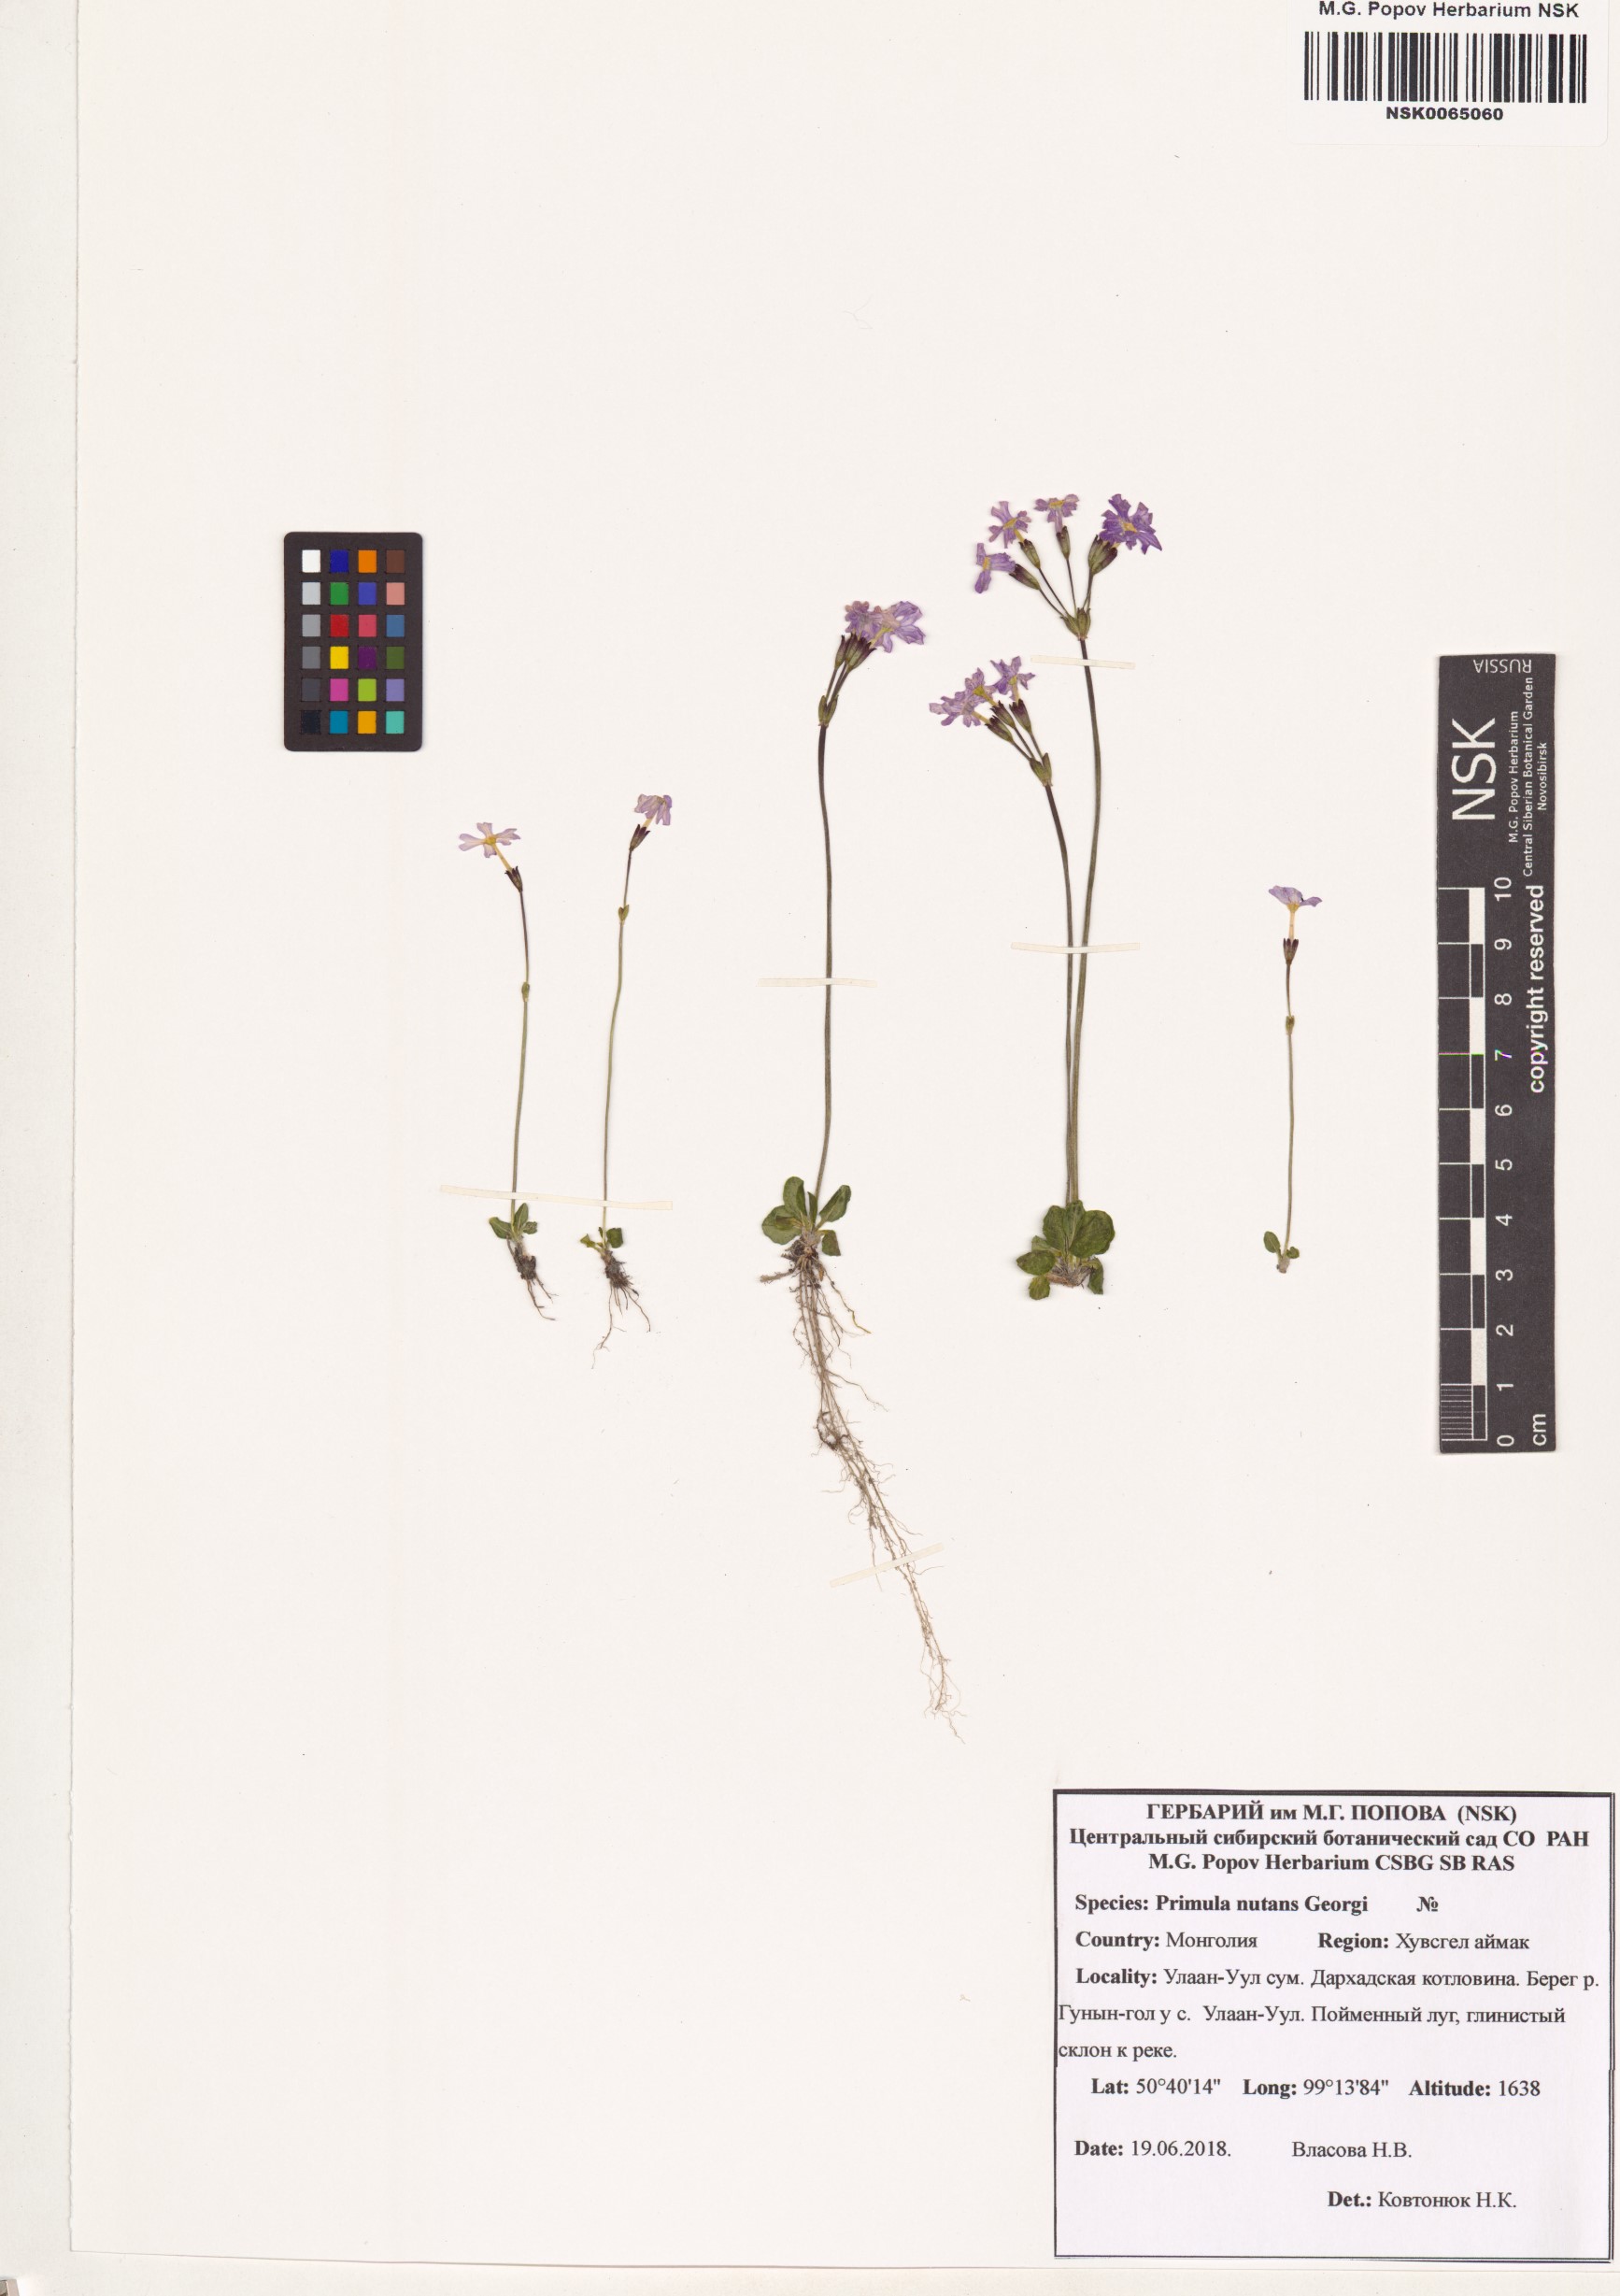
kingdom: Plantae
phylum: Tracheophyta
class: Magnoliopsida
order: Ericales
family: Primulaceae
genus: Primula
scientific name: Primula nutans
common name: Siberian primrose
